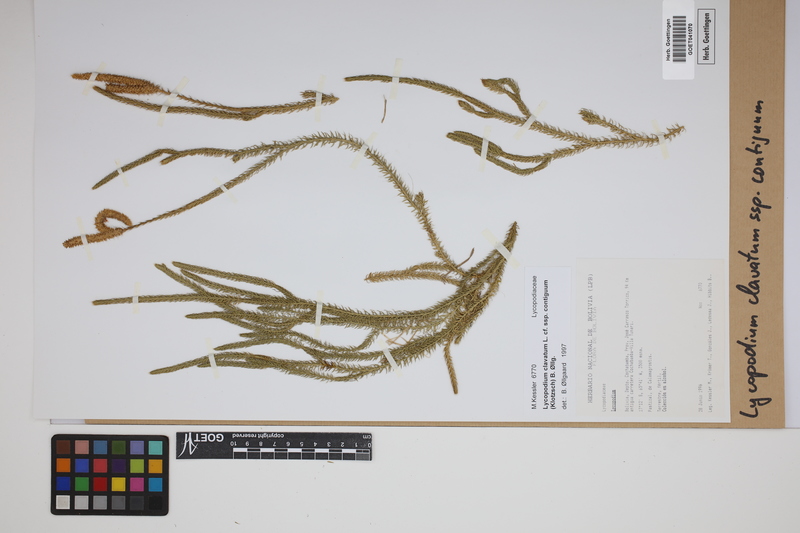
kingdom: Plantae
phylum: Tracheophyta
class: Lycopodiopsida
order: Lycopodiales
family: Lycopodiaceae
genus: Lycopodium
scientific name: Lycopodium clavatum
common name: Stag's-horn clubmoss
